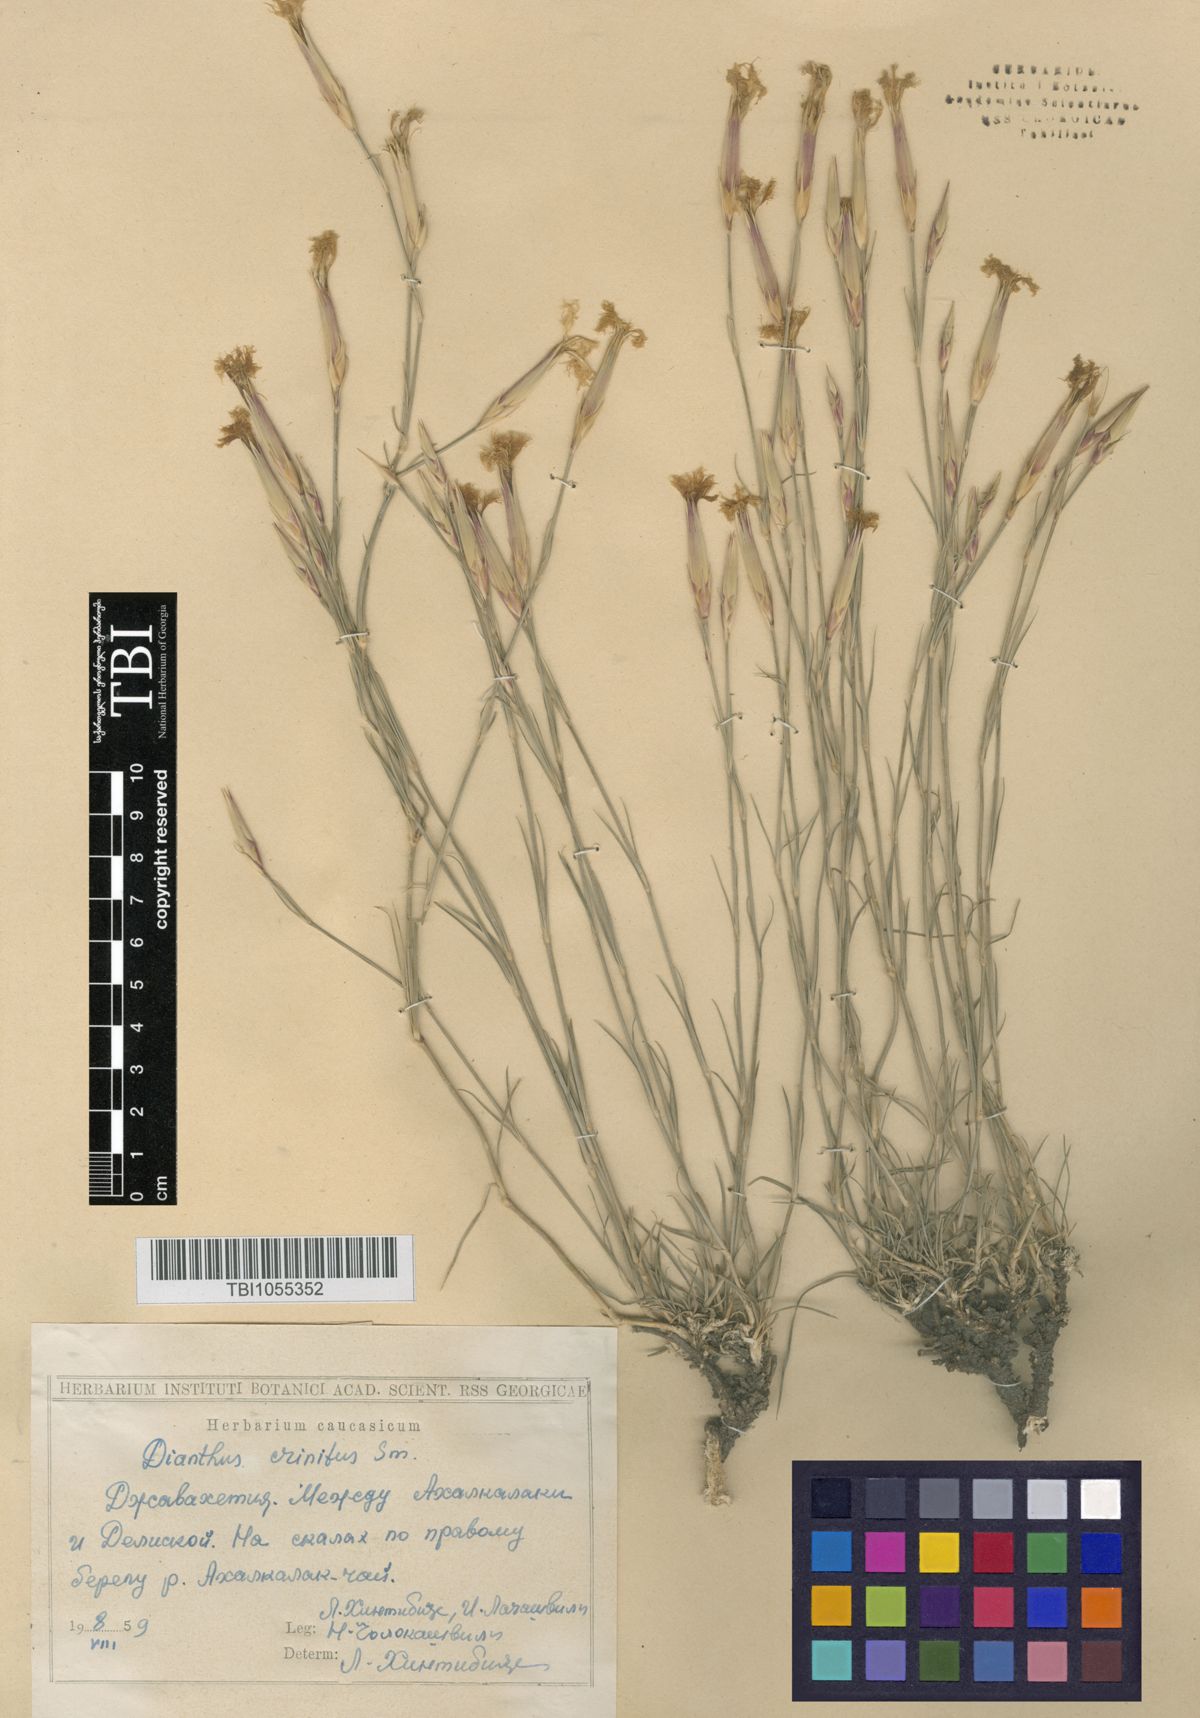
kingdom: Plantae
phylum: Tracheophyta
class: Magnoliopsida
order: Caryophyllales
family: Caryophyllaceae
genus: Dianthus
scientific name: Dianthus crinitus
